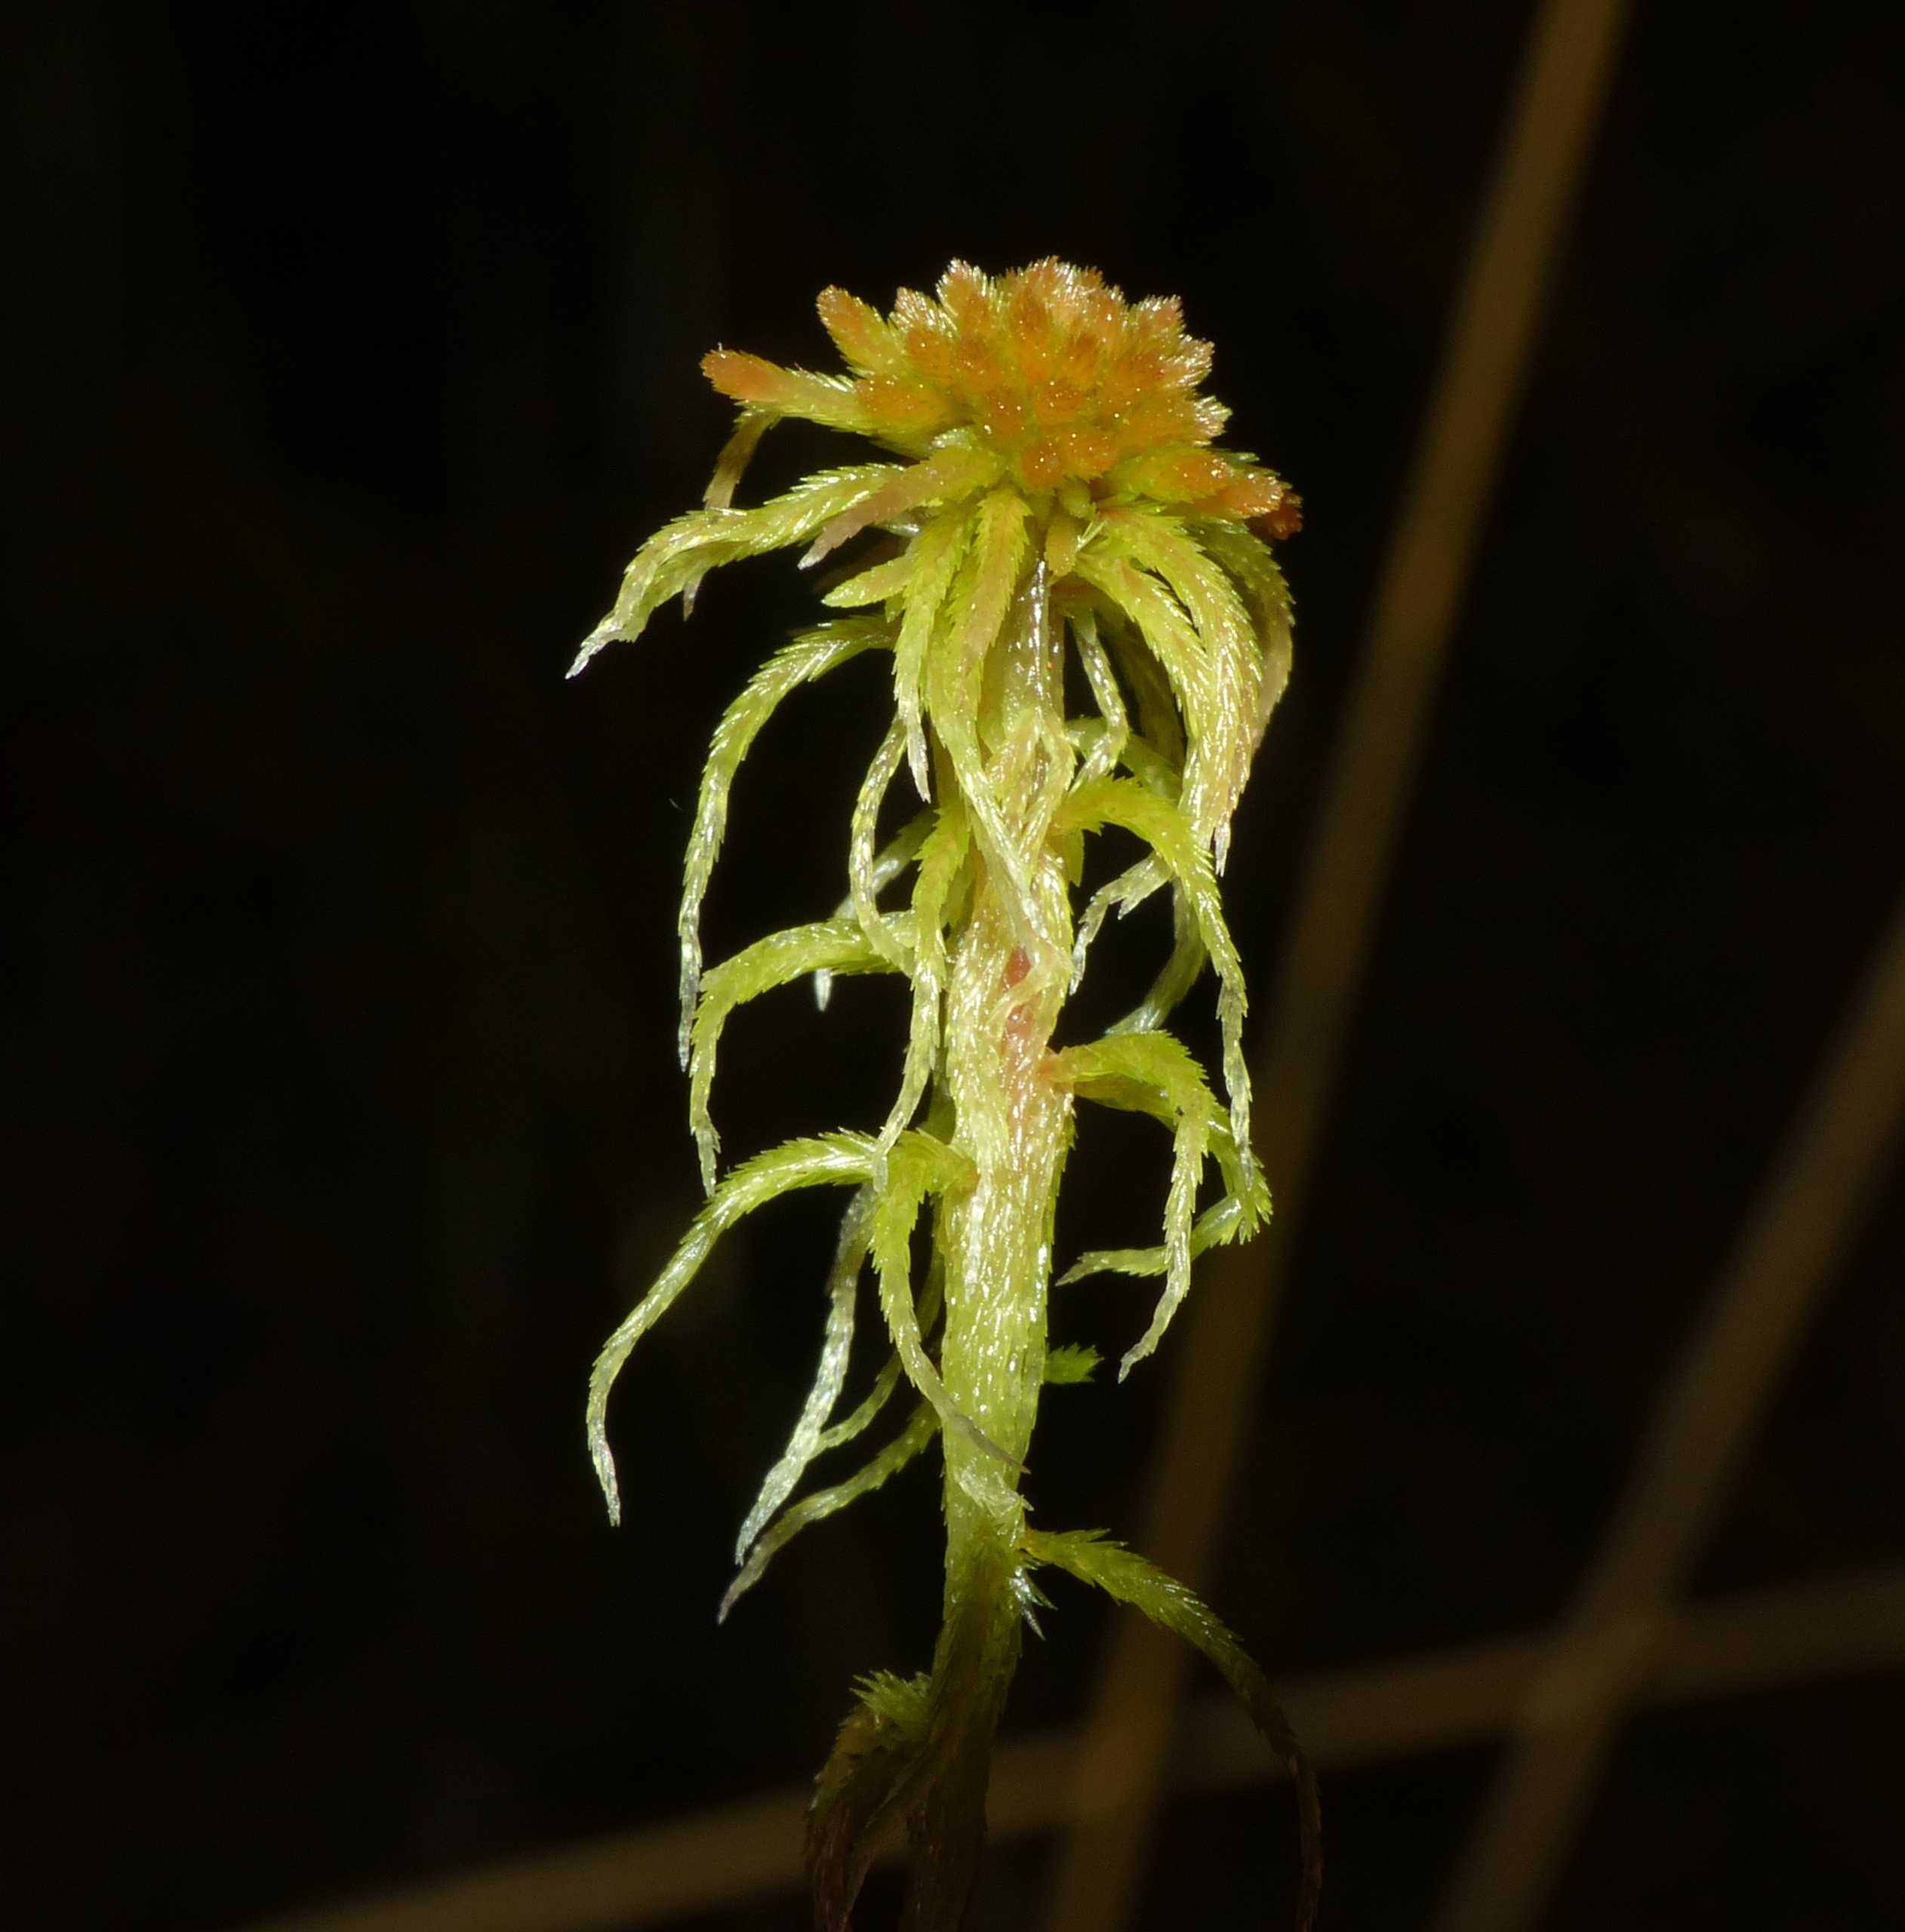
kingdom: Plantae
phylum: Bryophyta
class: Sphagnopsida
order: Sphagnales
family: Sphagnaceae
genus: Sphagnum
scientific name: Sphagnum angustifolium
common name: Rødgrenet tørvemos
